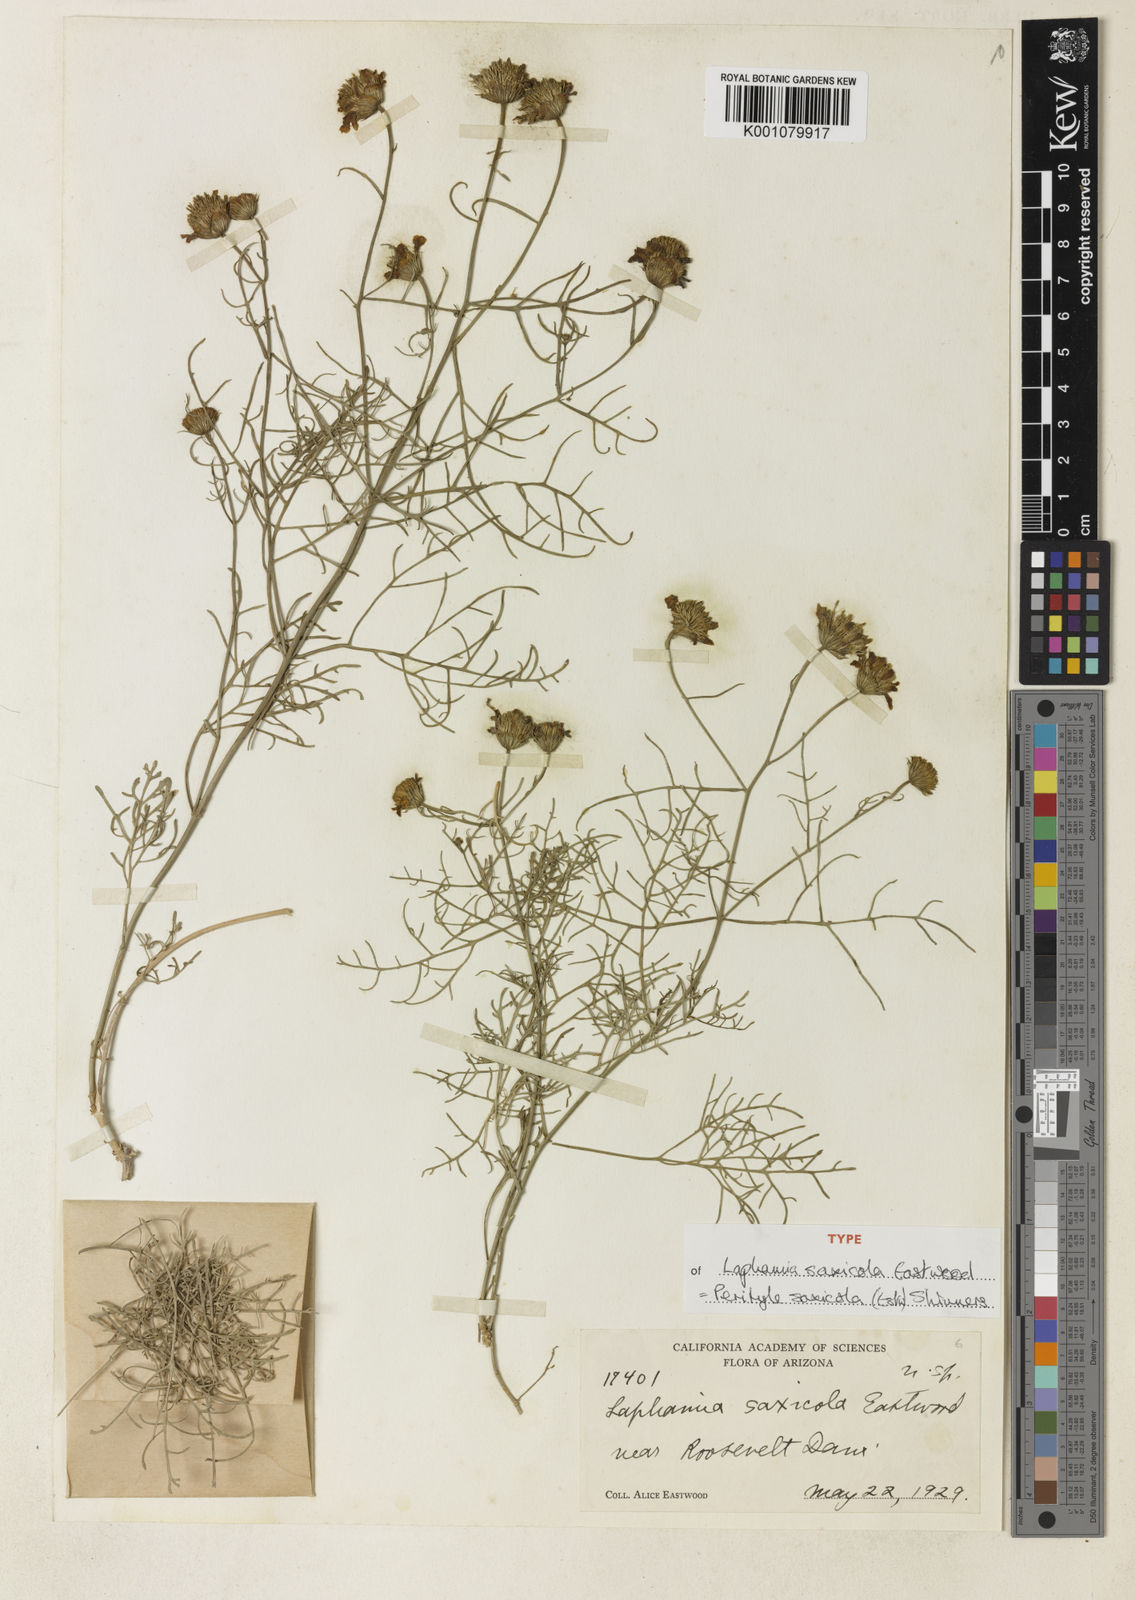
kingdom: Plantae
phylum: Tracheophyta
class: Magnoliopsida
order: Asterales
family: Asteraceae
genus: Laphamia
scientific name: Laphamia saxicola
